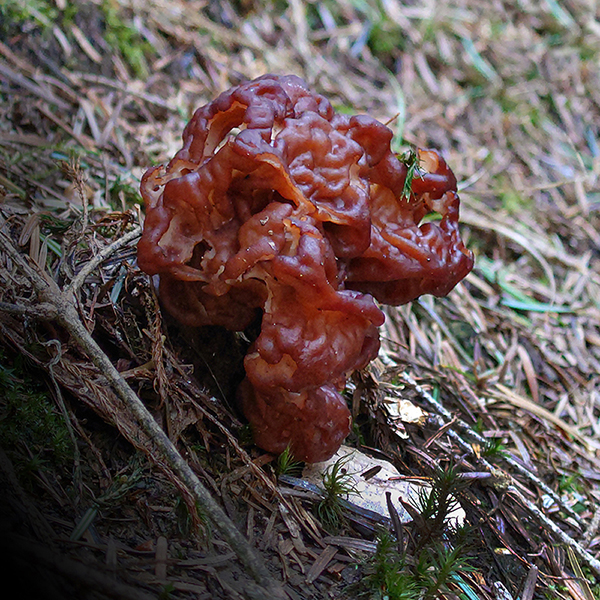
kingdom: Fungi
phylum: Ascomycota
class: Pezizomycetes
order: Pezizales
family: Discinaceae
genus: Gyromitra
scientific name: Gyromitra esculenta
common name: ægte stenmorkel
